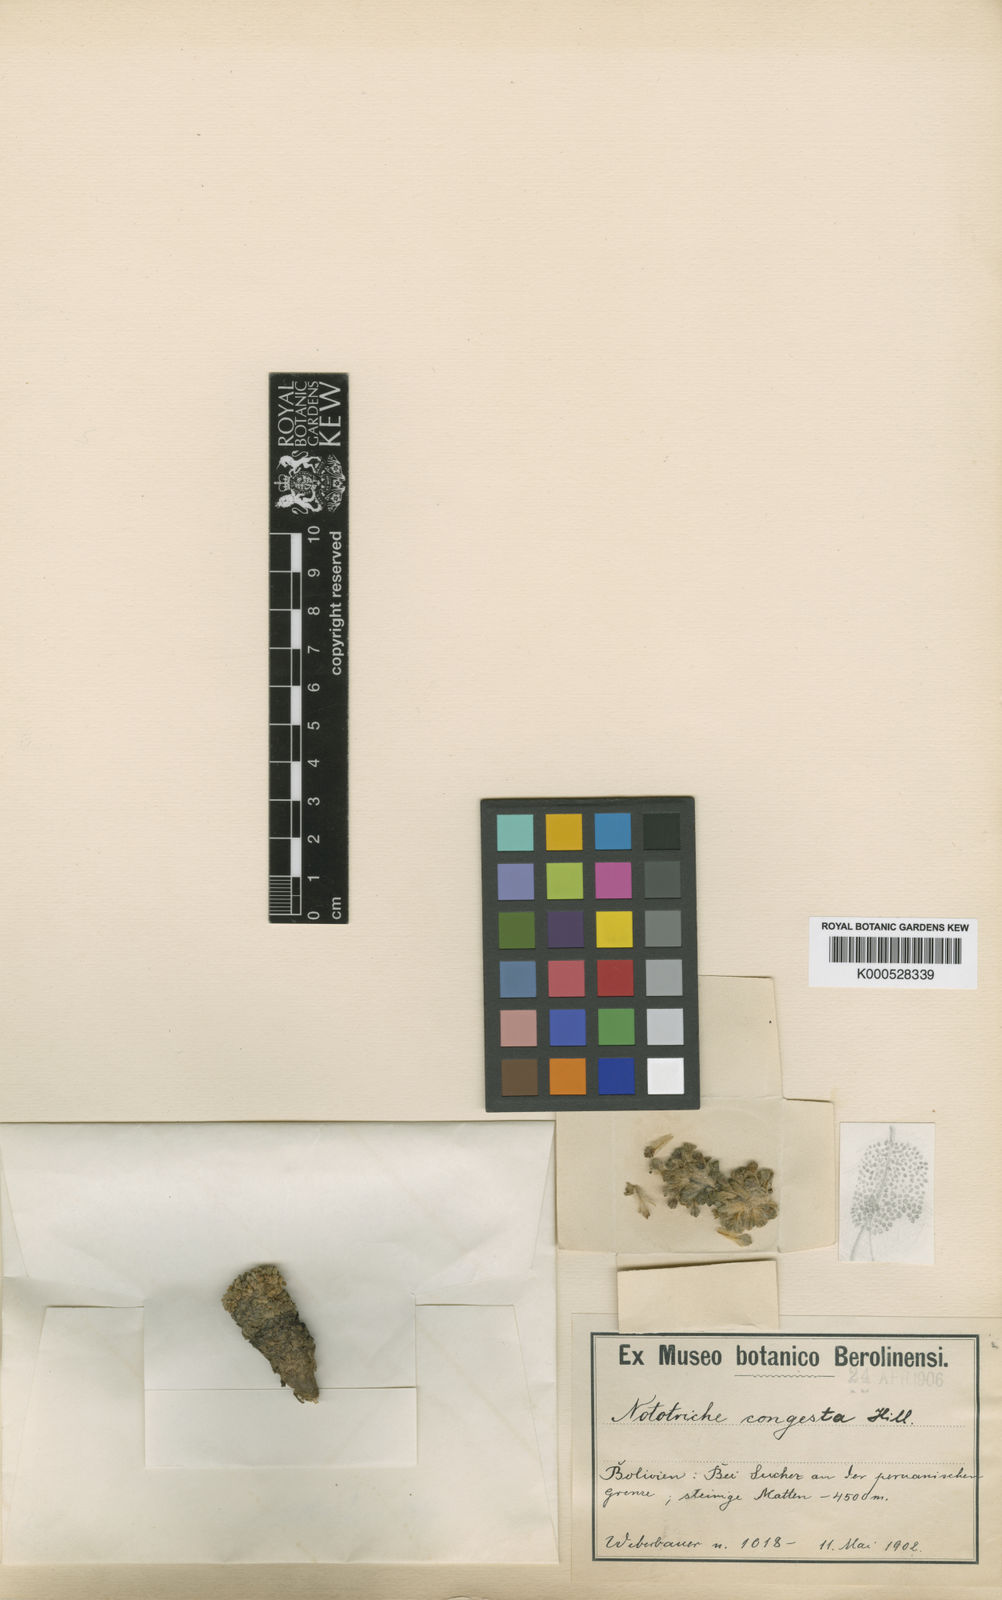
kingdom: Plantae
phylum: Tracheophyta
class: Magnoliopsida
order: Malvales
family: Malvaceae
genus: Nototriche
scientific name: Nototriche congesta
